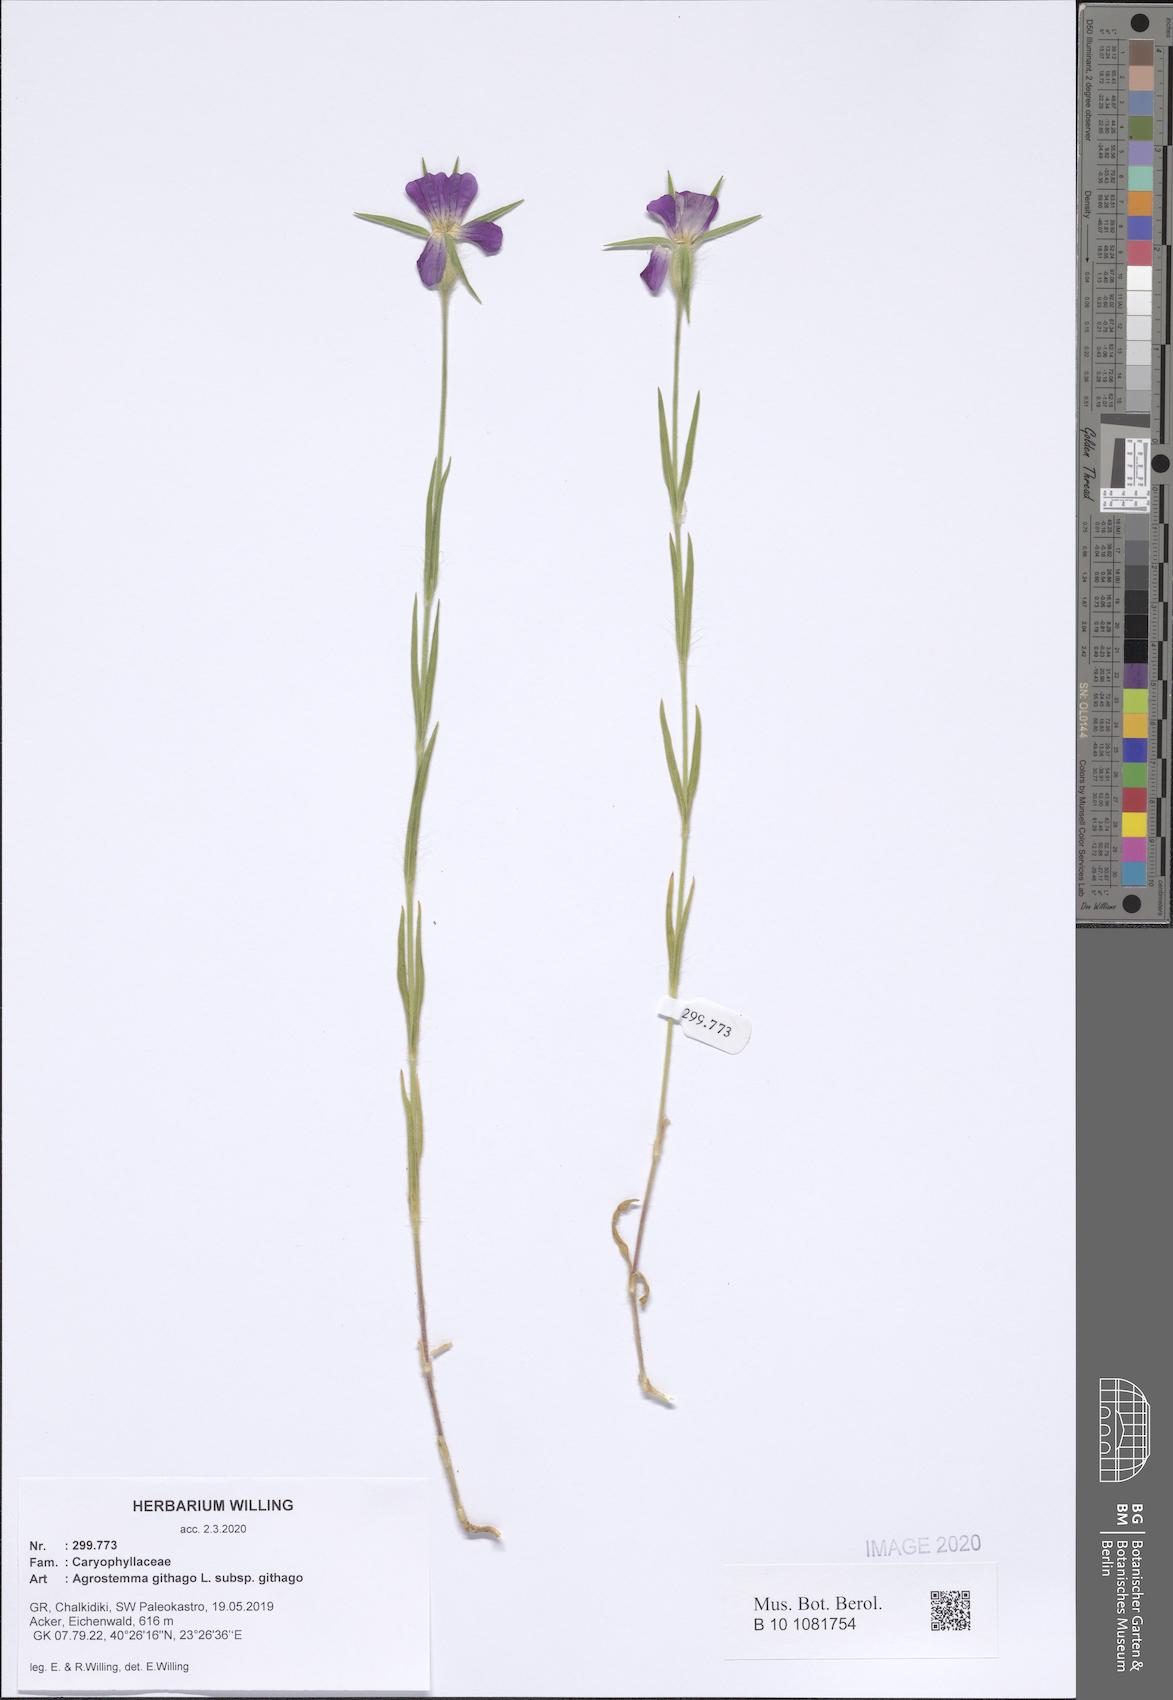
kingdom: Plantae
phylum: Tracheophyta
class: Magnoliopsida
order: Caryophyllales
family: Caryophyllaceae
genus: Agrostemma
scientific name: Agrostemma githago
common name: Common corncockle
